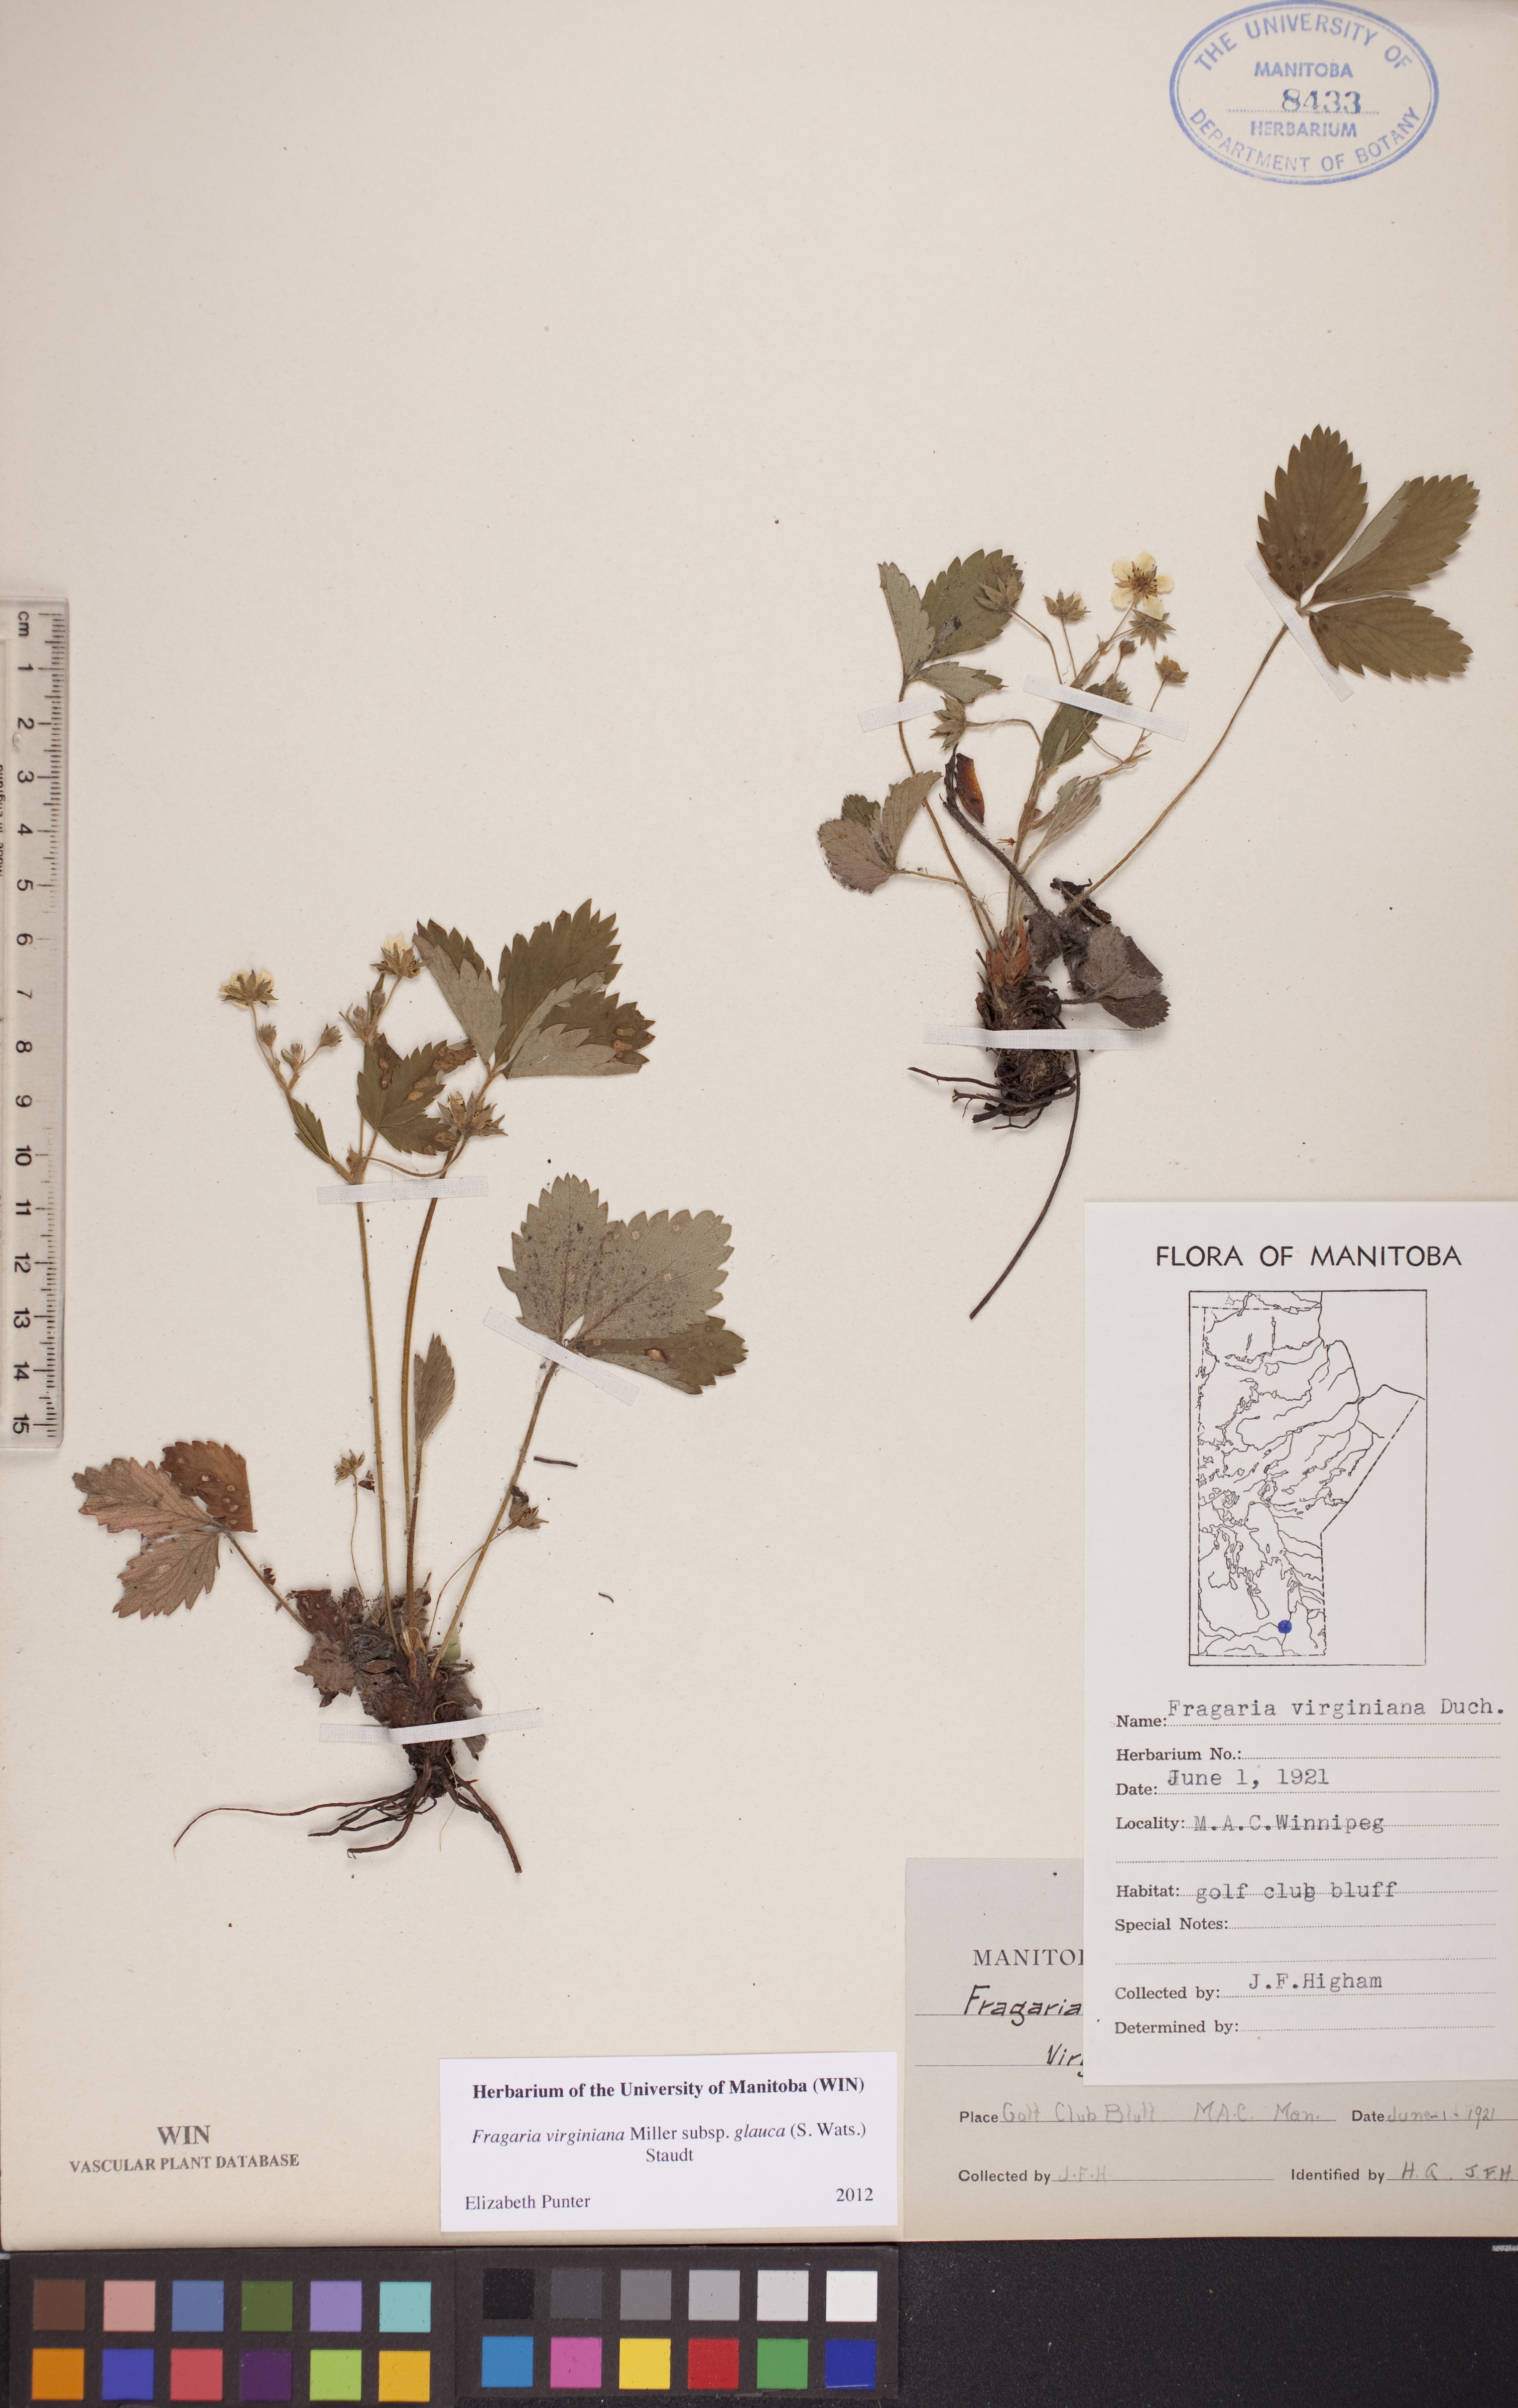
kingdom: Plantae
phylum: Tracheophyta
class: Magnoliopsida
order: Rosales
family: Rosaceae
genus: Fragaria
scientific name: Fragaria virginiana
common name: Thickleaved wild strawberry
